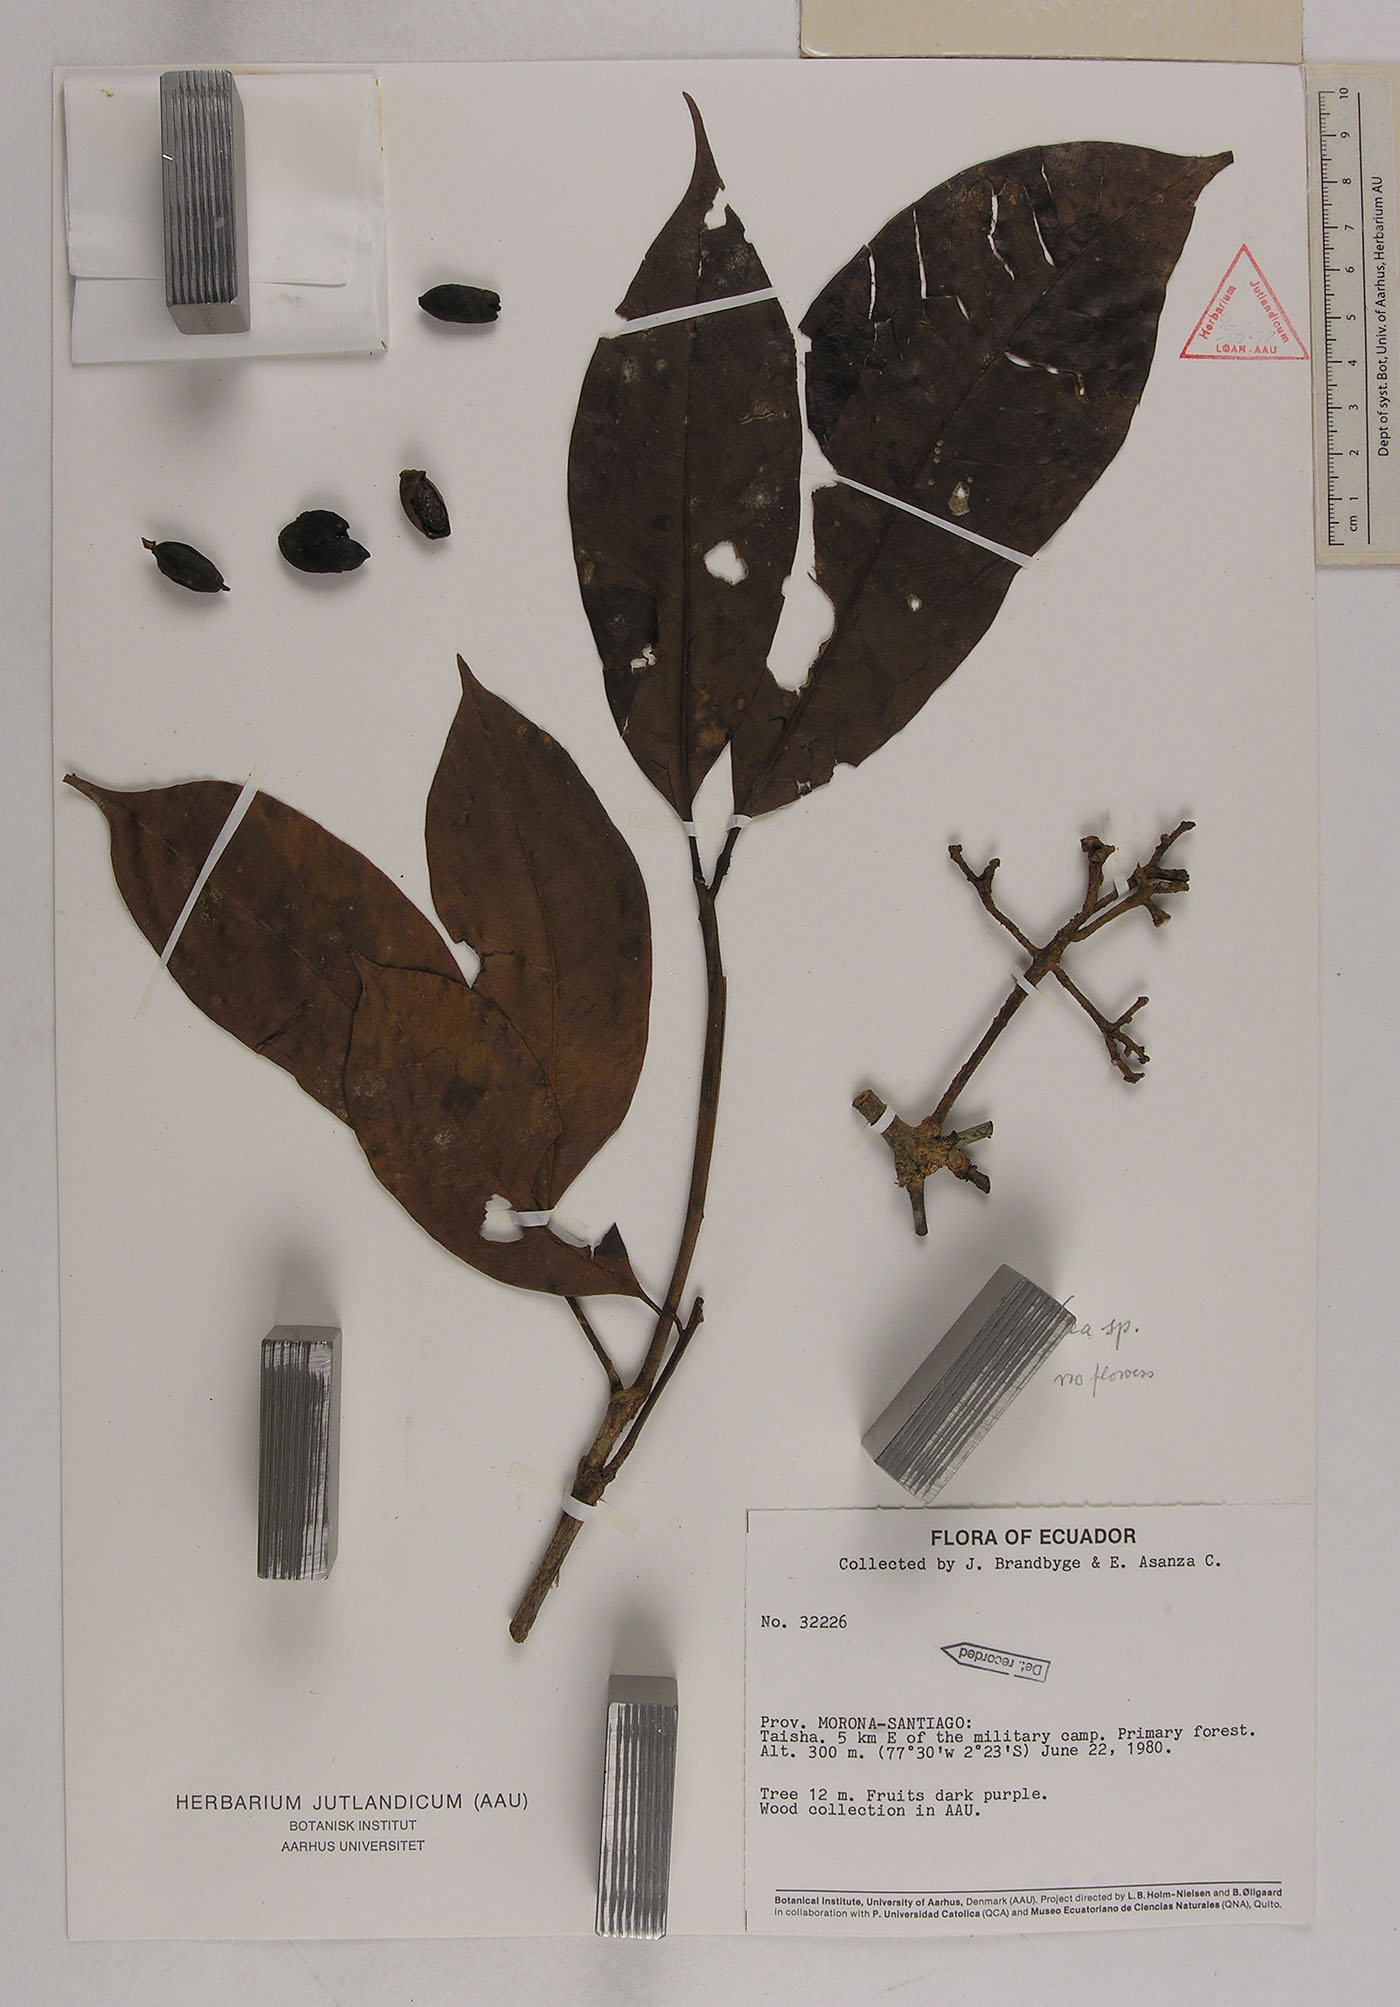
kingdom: Plantae
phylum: Tracheophyta
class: Magnoliopsida
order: Caryophyllales
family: Nyctaginaceae
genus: Neea
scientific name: Neea
